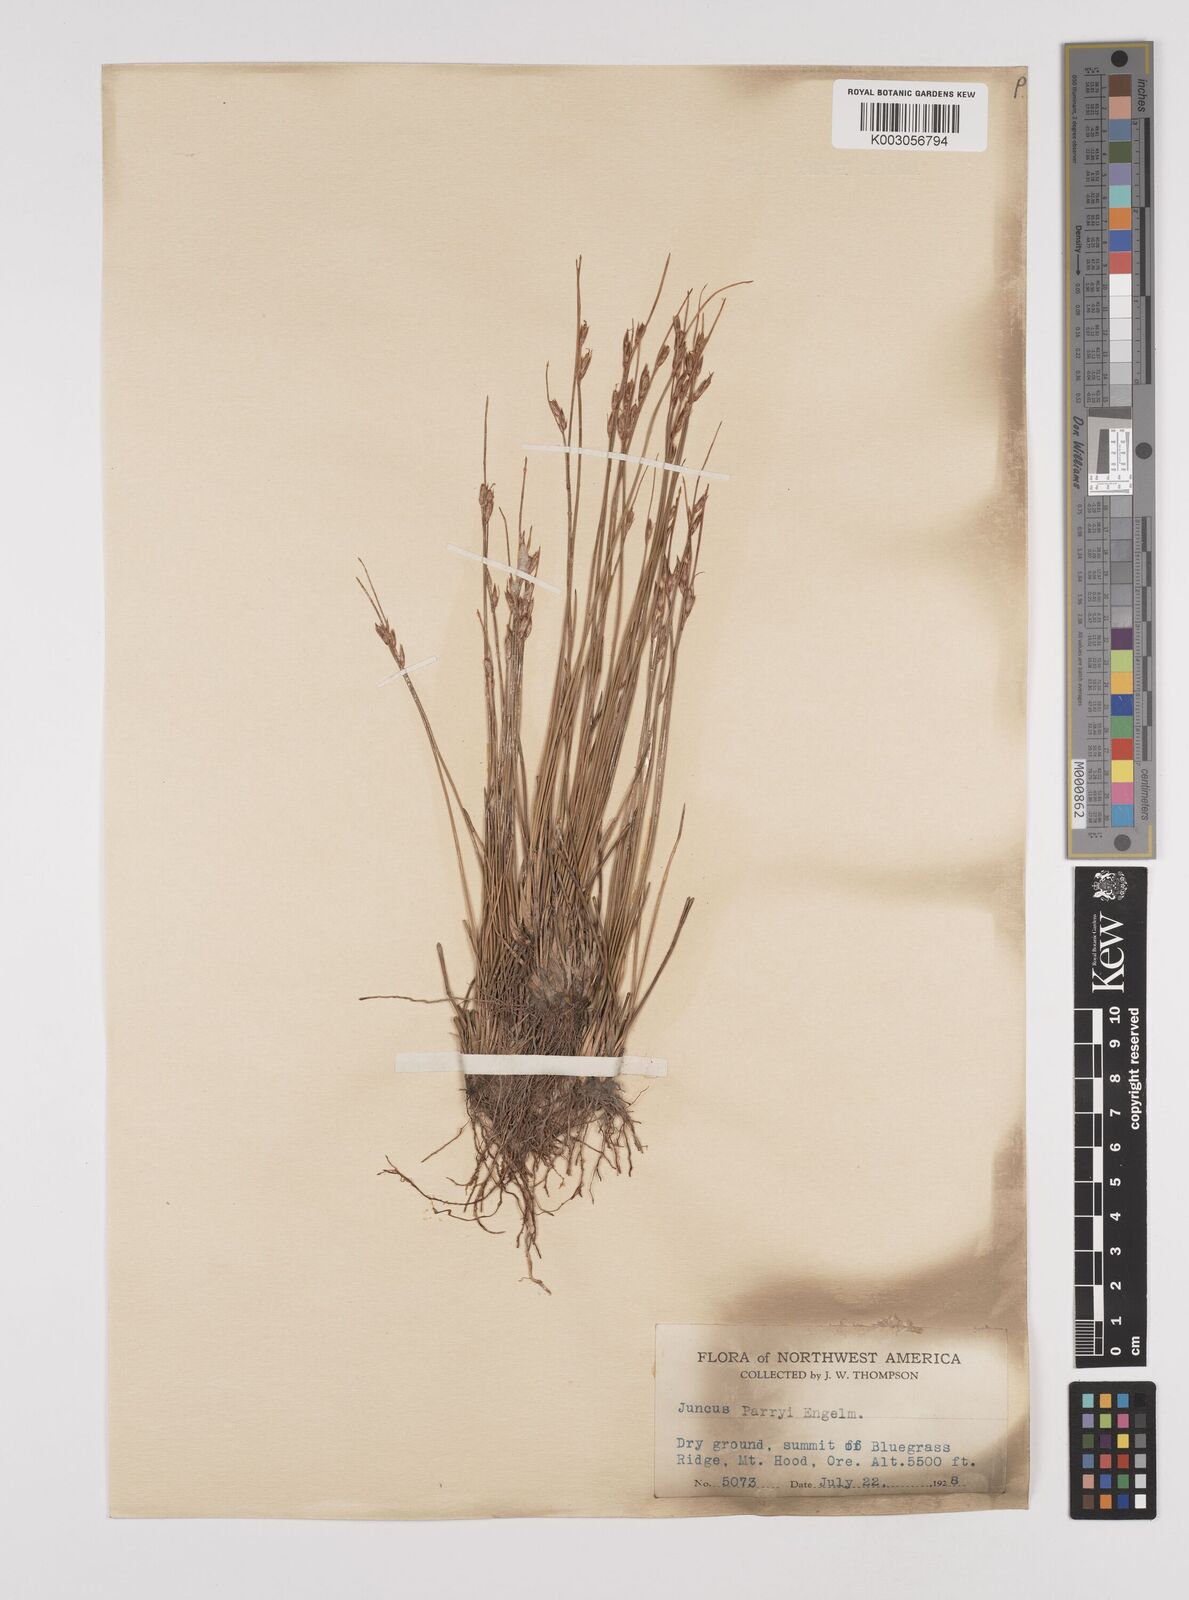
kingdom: Plantae
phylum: Tracheophyta
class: Liliopsida
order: Poales
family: Juncaceae
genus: Juncus
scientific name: Juncus parryi
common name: Parry's rush
